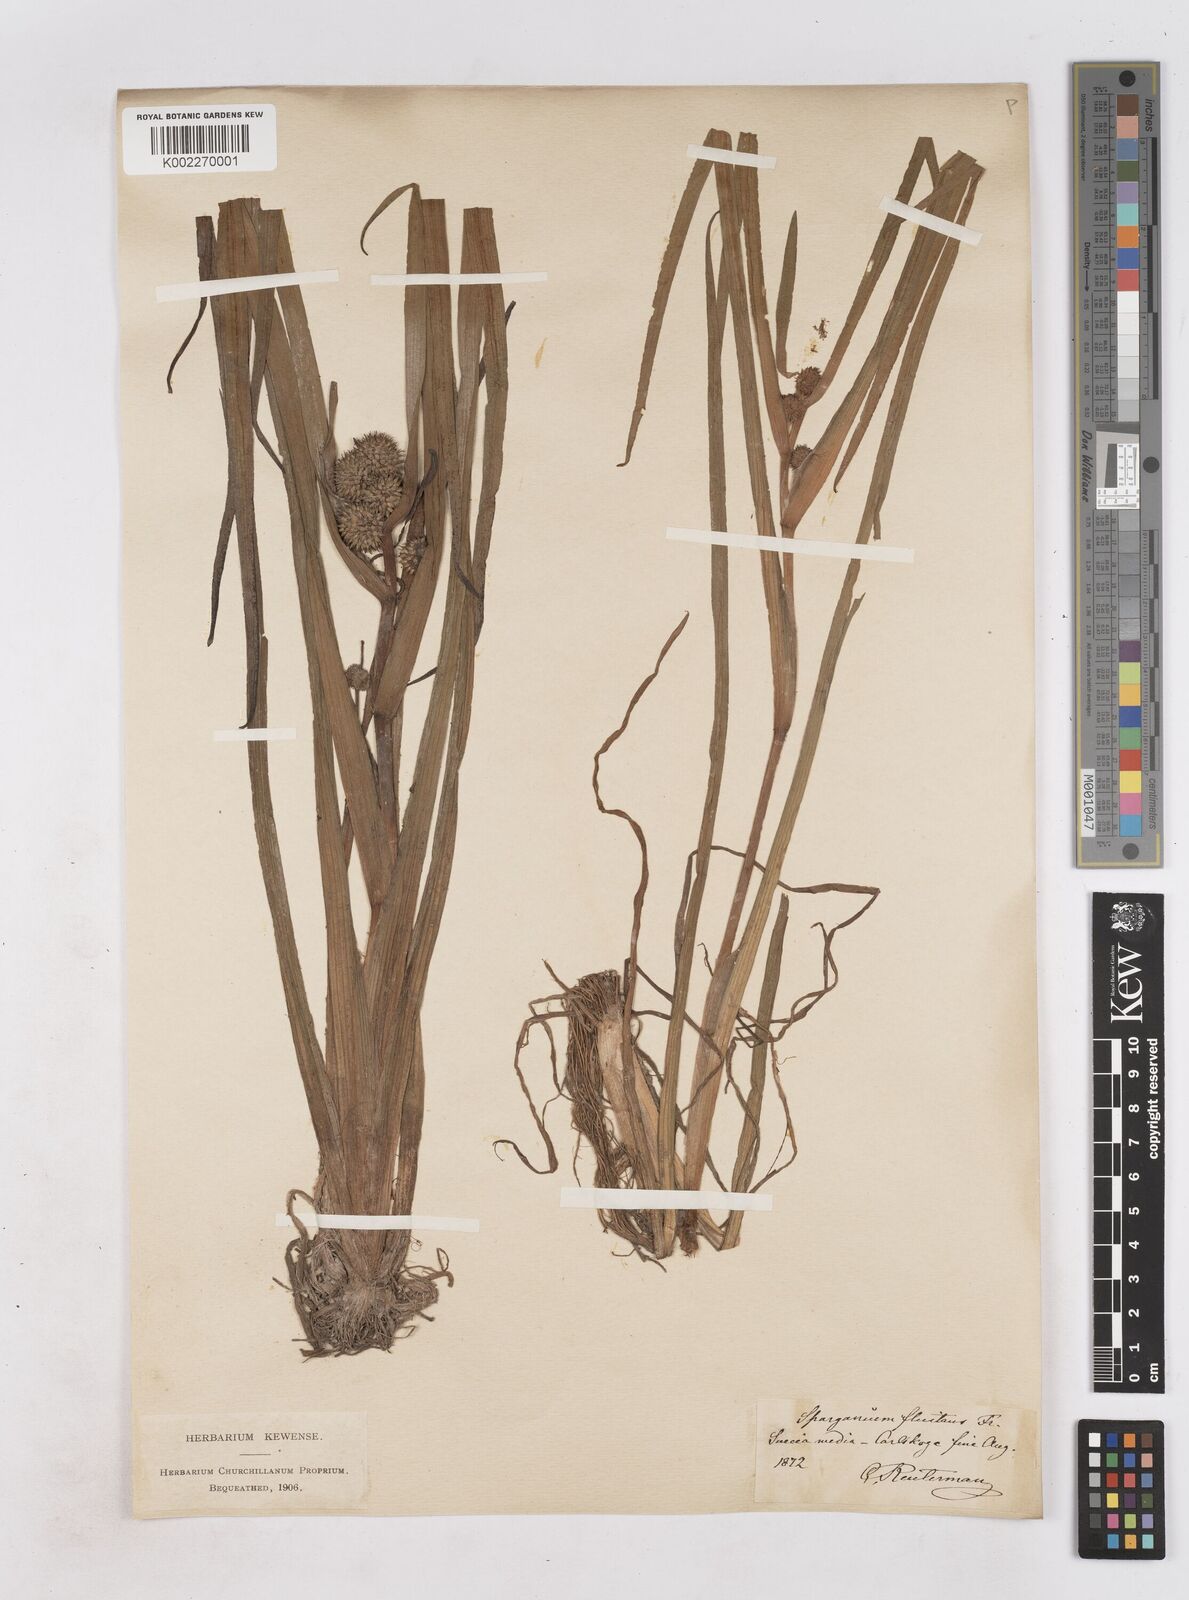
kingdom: Plantae
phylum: Tracheophyta
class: Liliopsida
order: Poales
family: Typhaceae
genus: Sparganium
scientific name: Sparganium angustifolium
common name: Floating bur-reed
